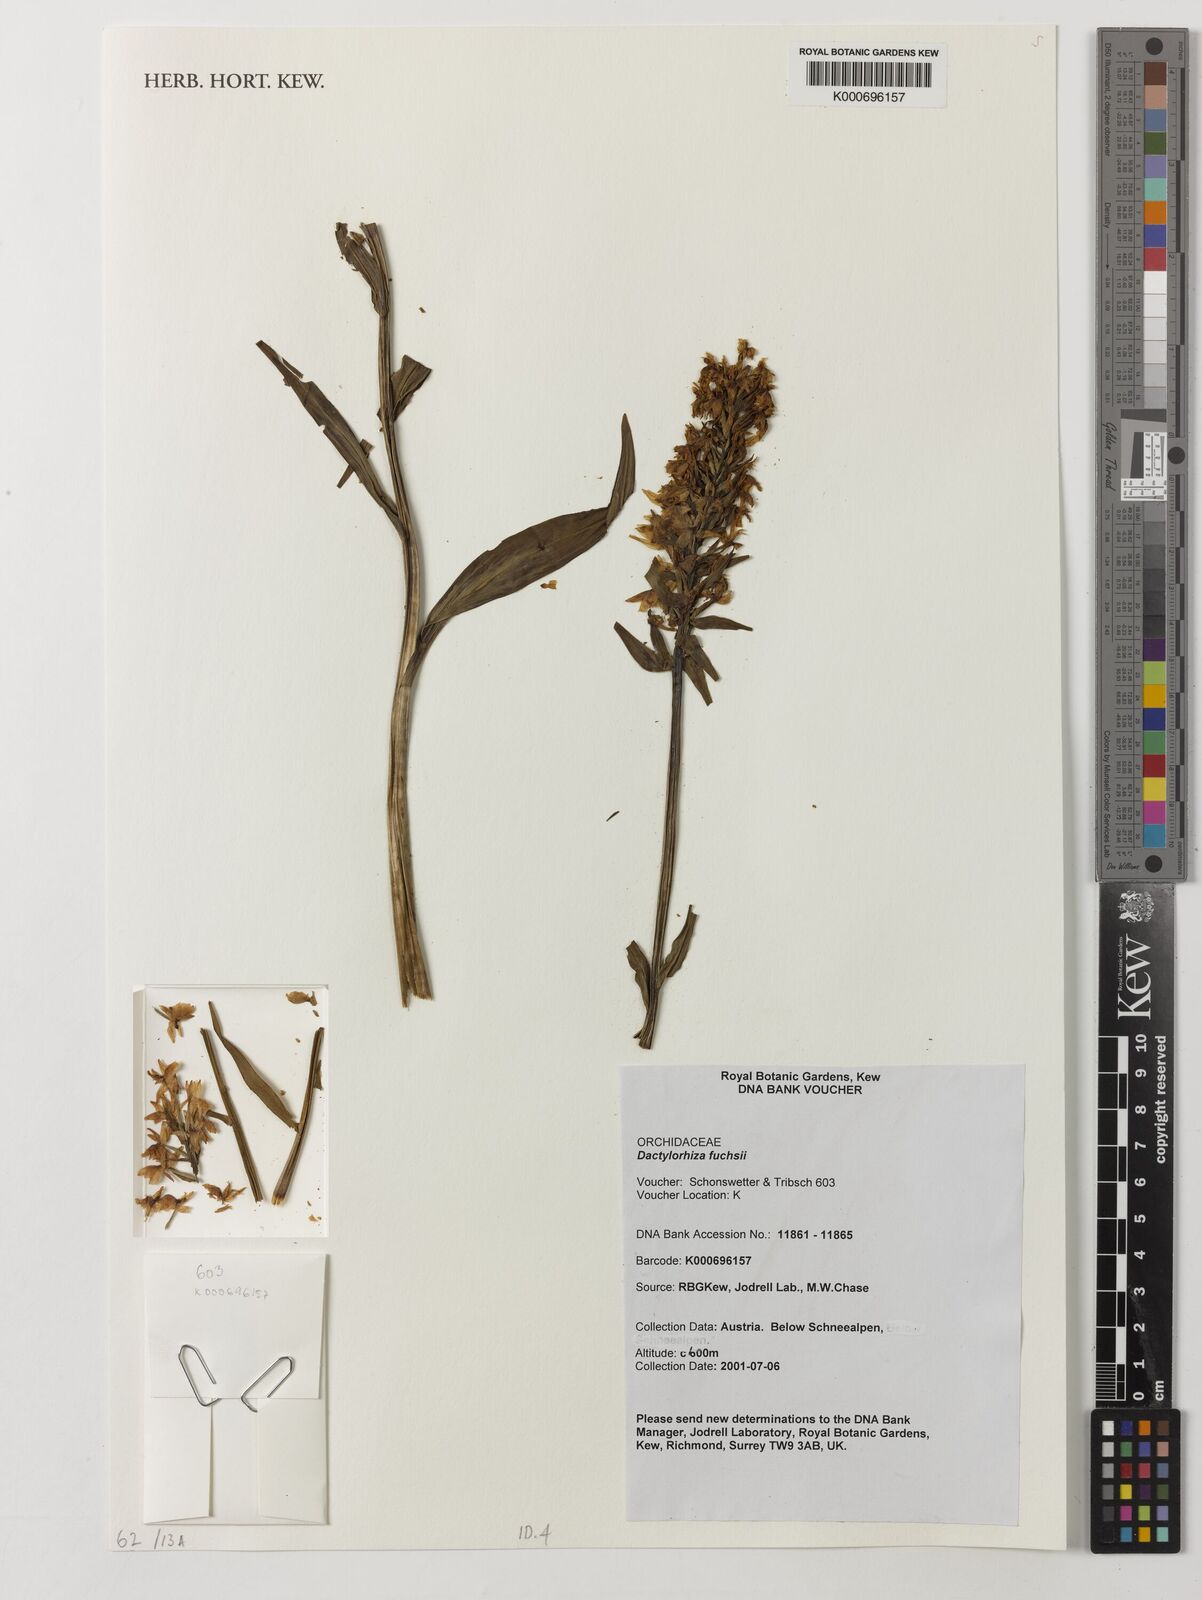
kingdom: Plantae
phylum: Tracheophyta
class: Liliopsida
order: Asparagales
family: Orchidaceae
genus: Dactylodenia
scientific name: Dactylodenia
